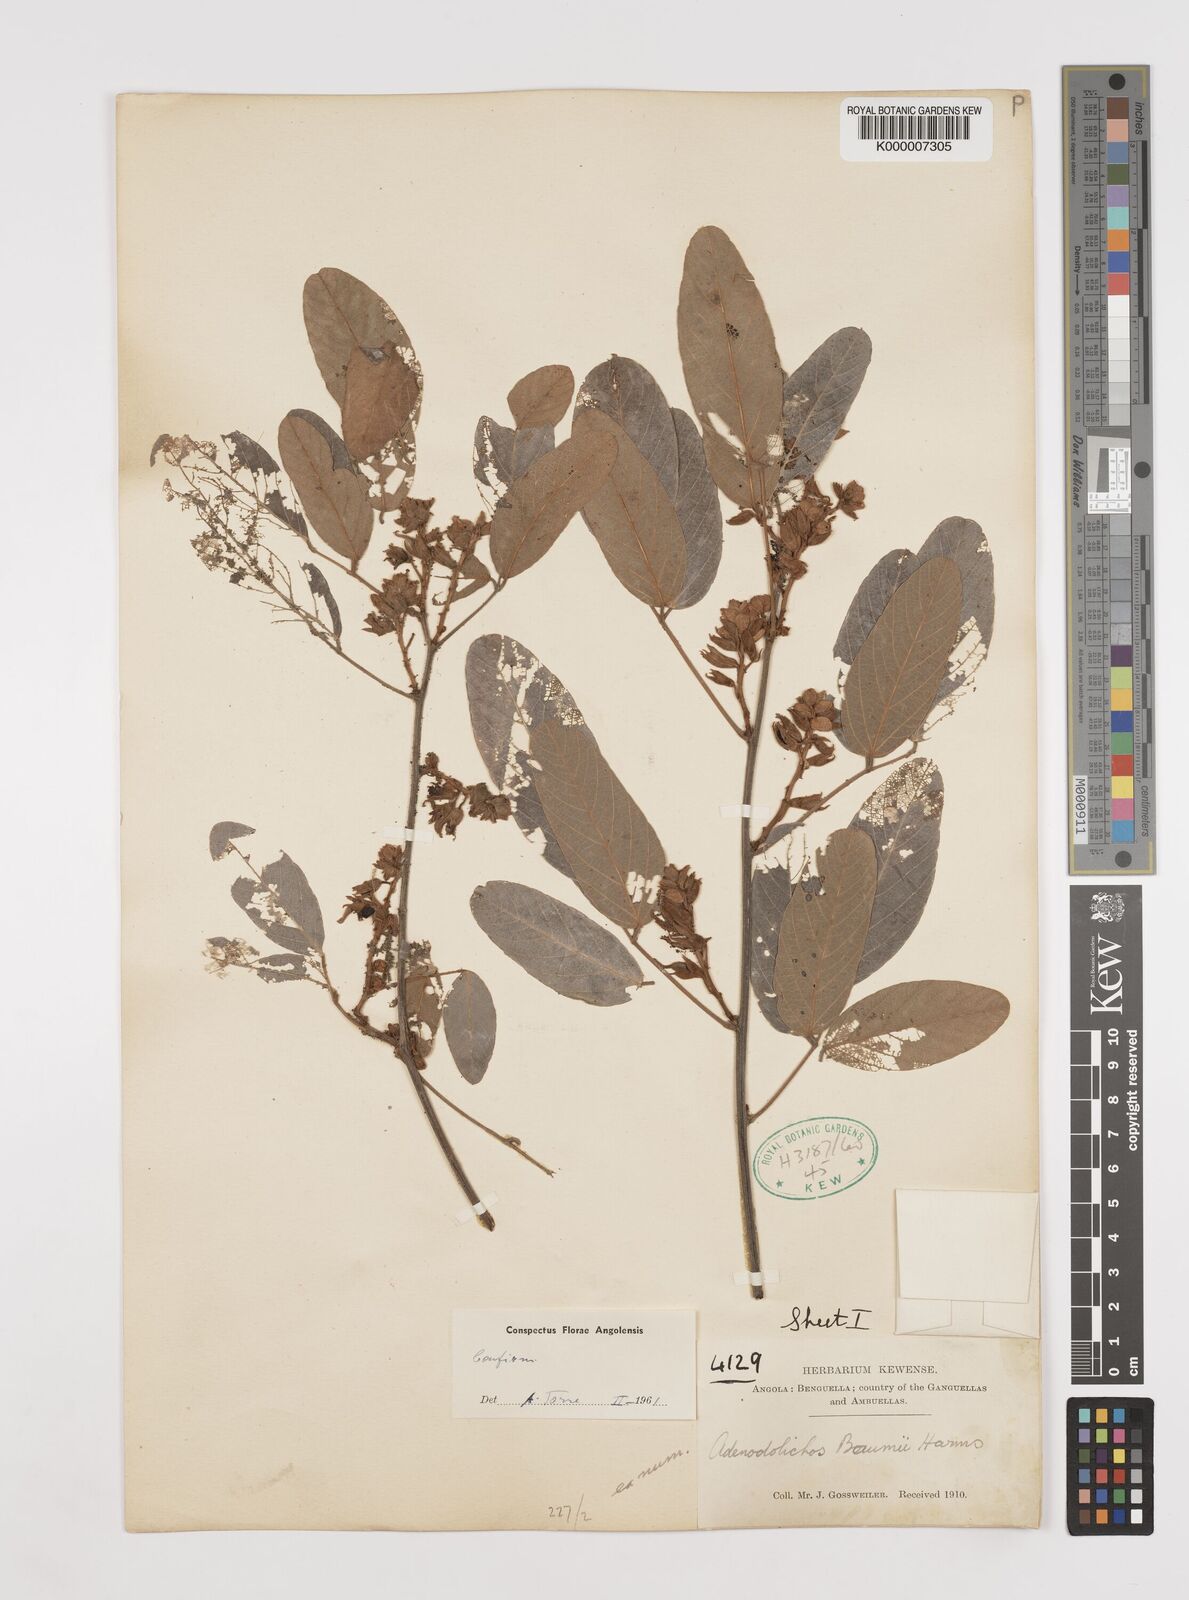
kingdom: Plantae
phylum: Tracheophyta
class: Magnoliopsida
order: Fabales
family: Fabaceae
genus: Adenodolichos
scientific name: Adenodolichos baumii
